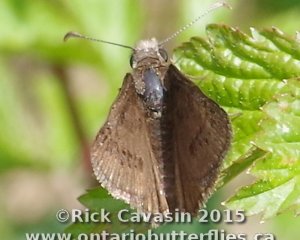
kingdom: Animalia
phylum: Arthropoda
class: Insecta
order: Lepidoptera
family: Hesperiidae
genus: Erynnis
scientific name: Erynnis brizo
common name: Sleepy Duskywing
